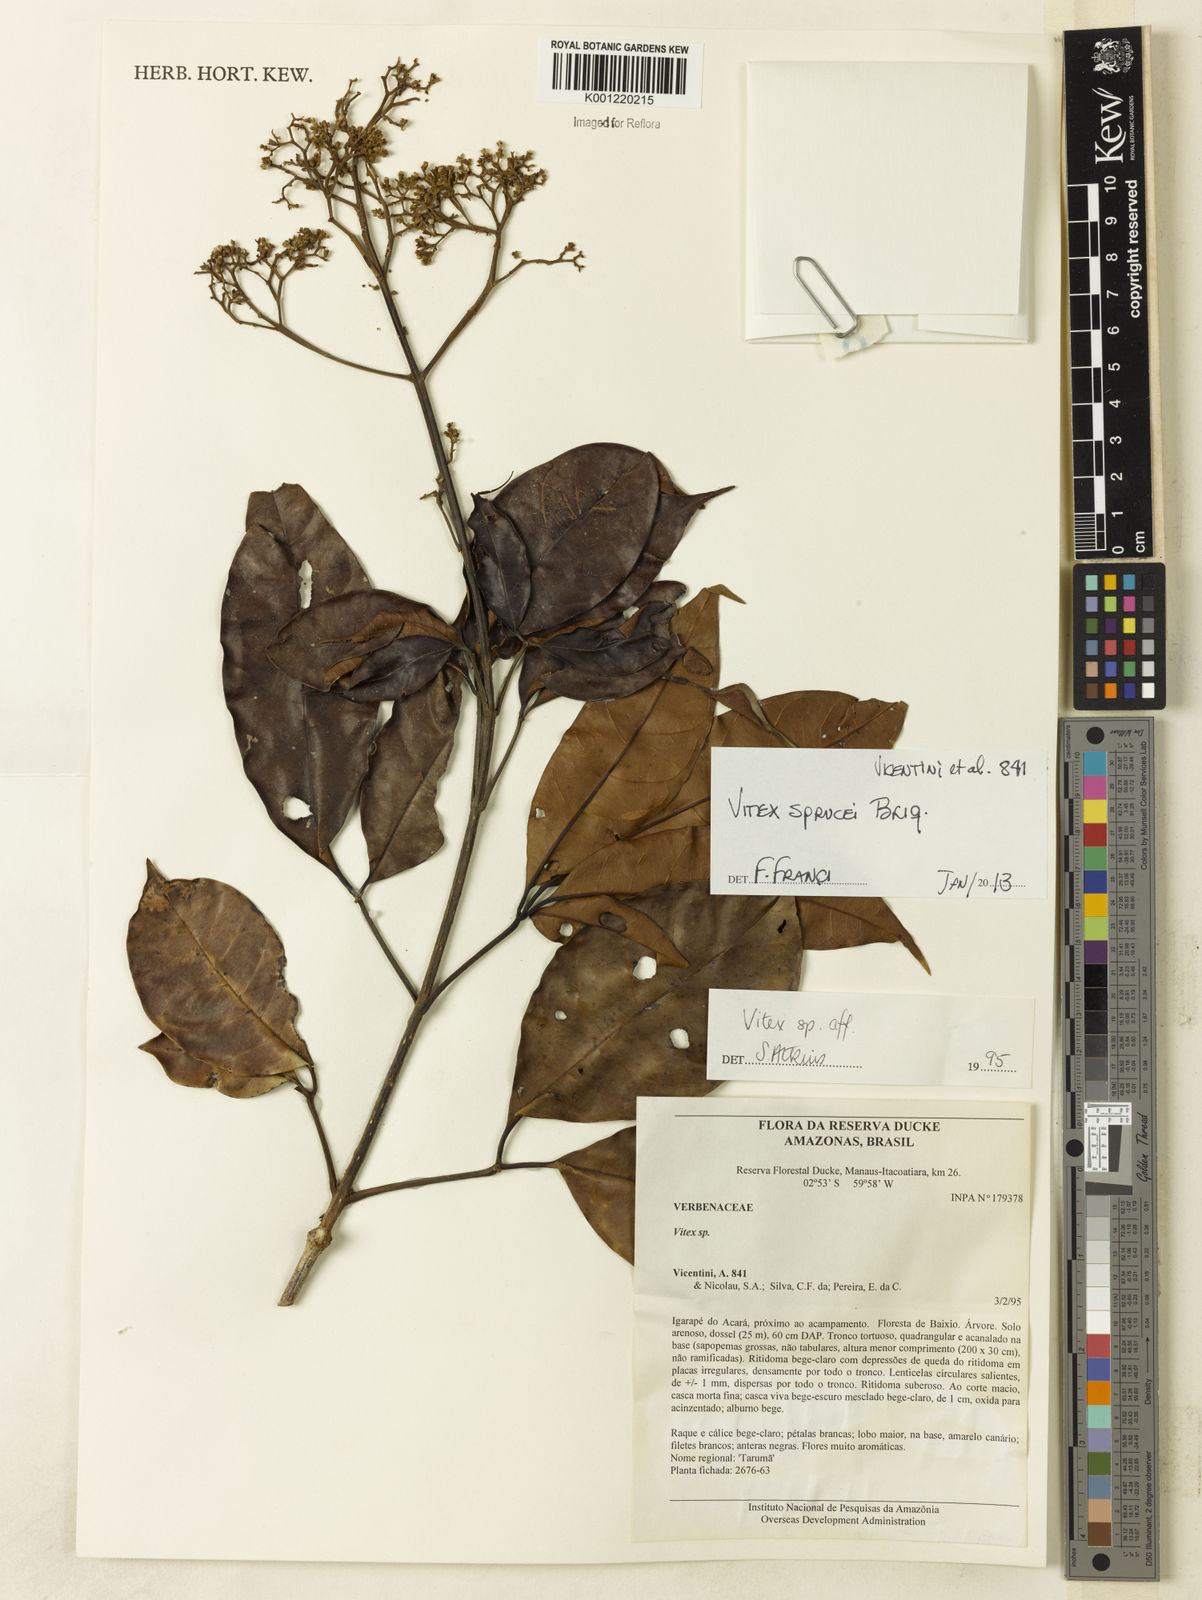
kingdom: Plantae
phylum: Tracheophyta
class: Magnoliopsida
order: Lamiales
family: Lamiaceae
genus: Vitex
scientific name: Vitex sprucei
